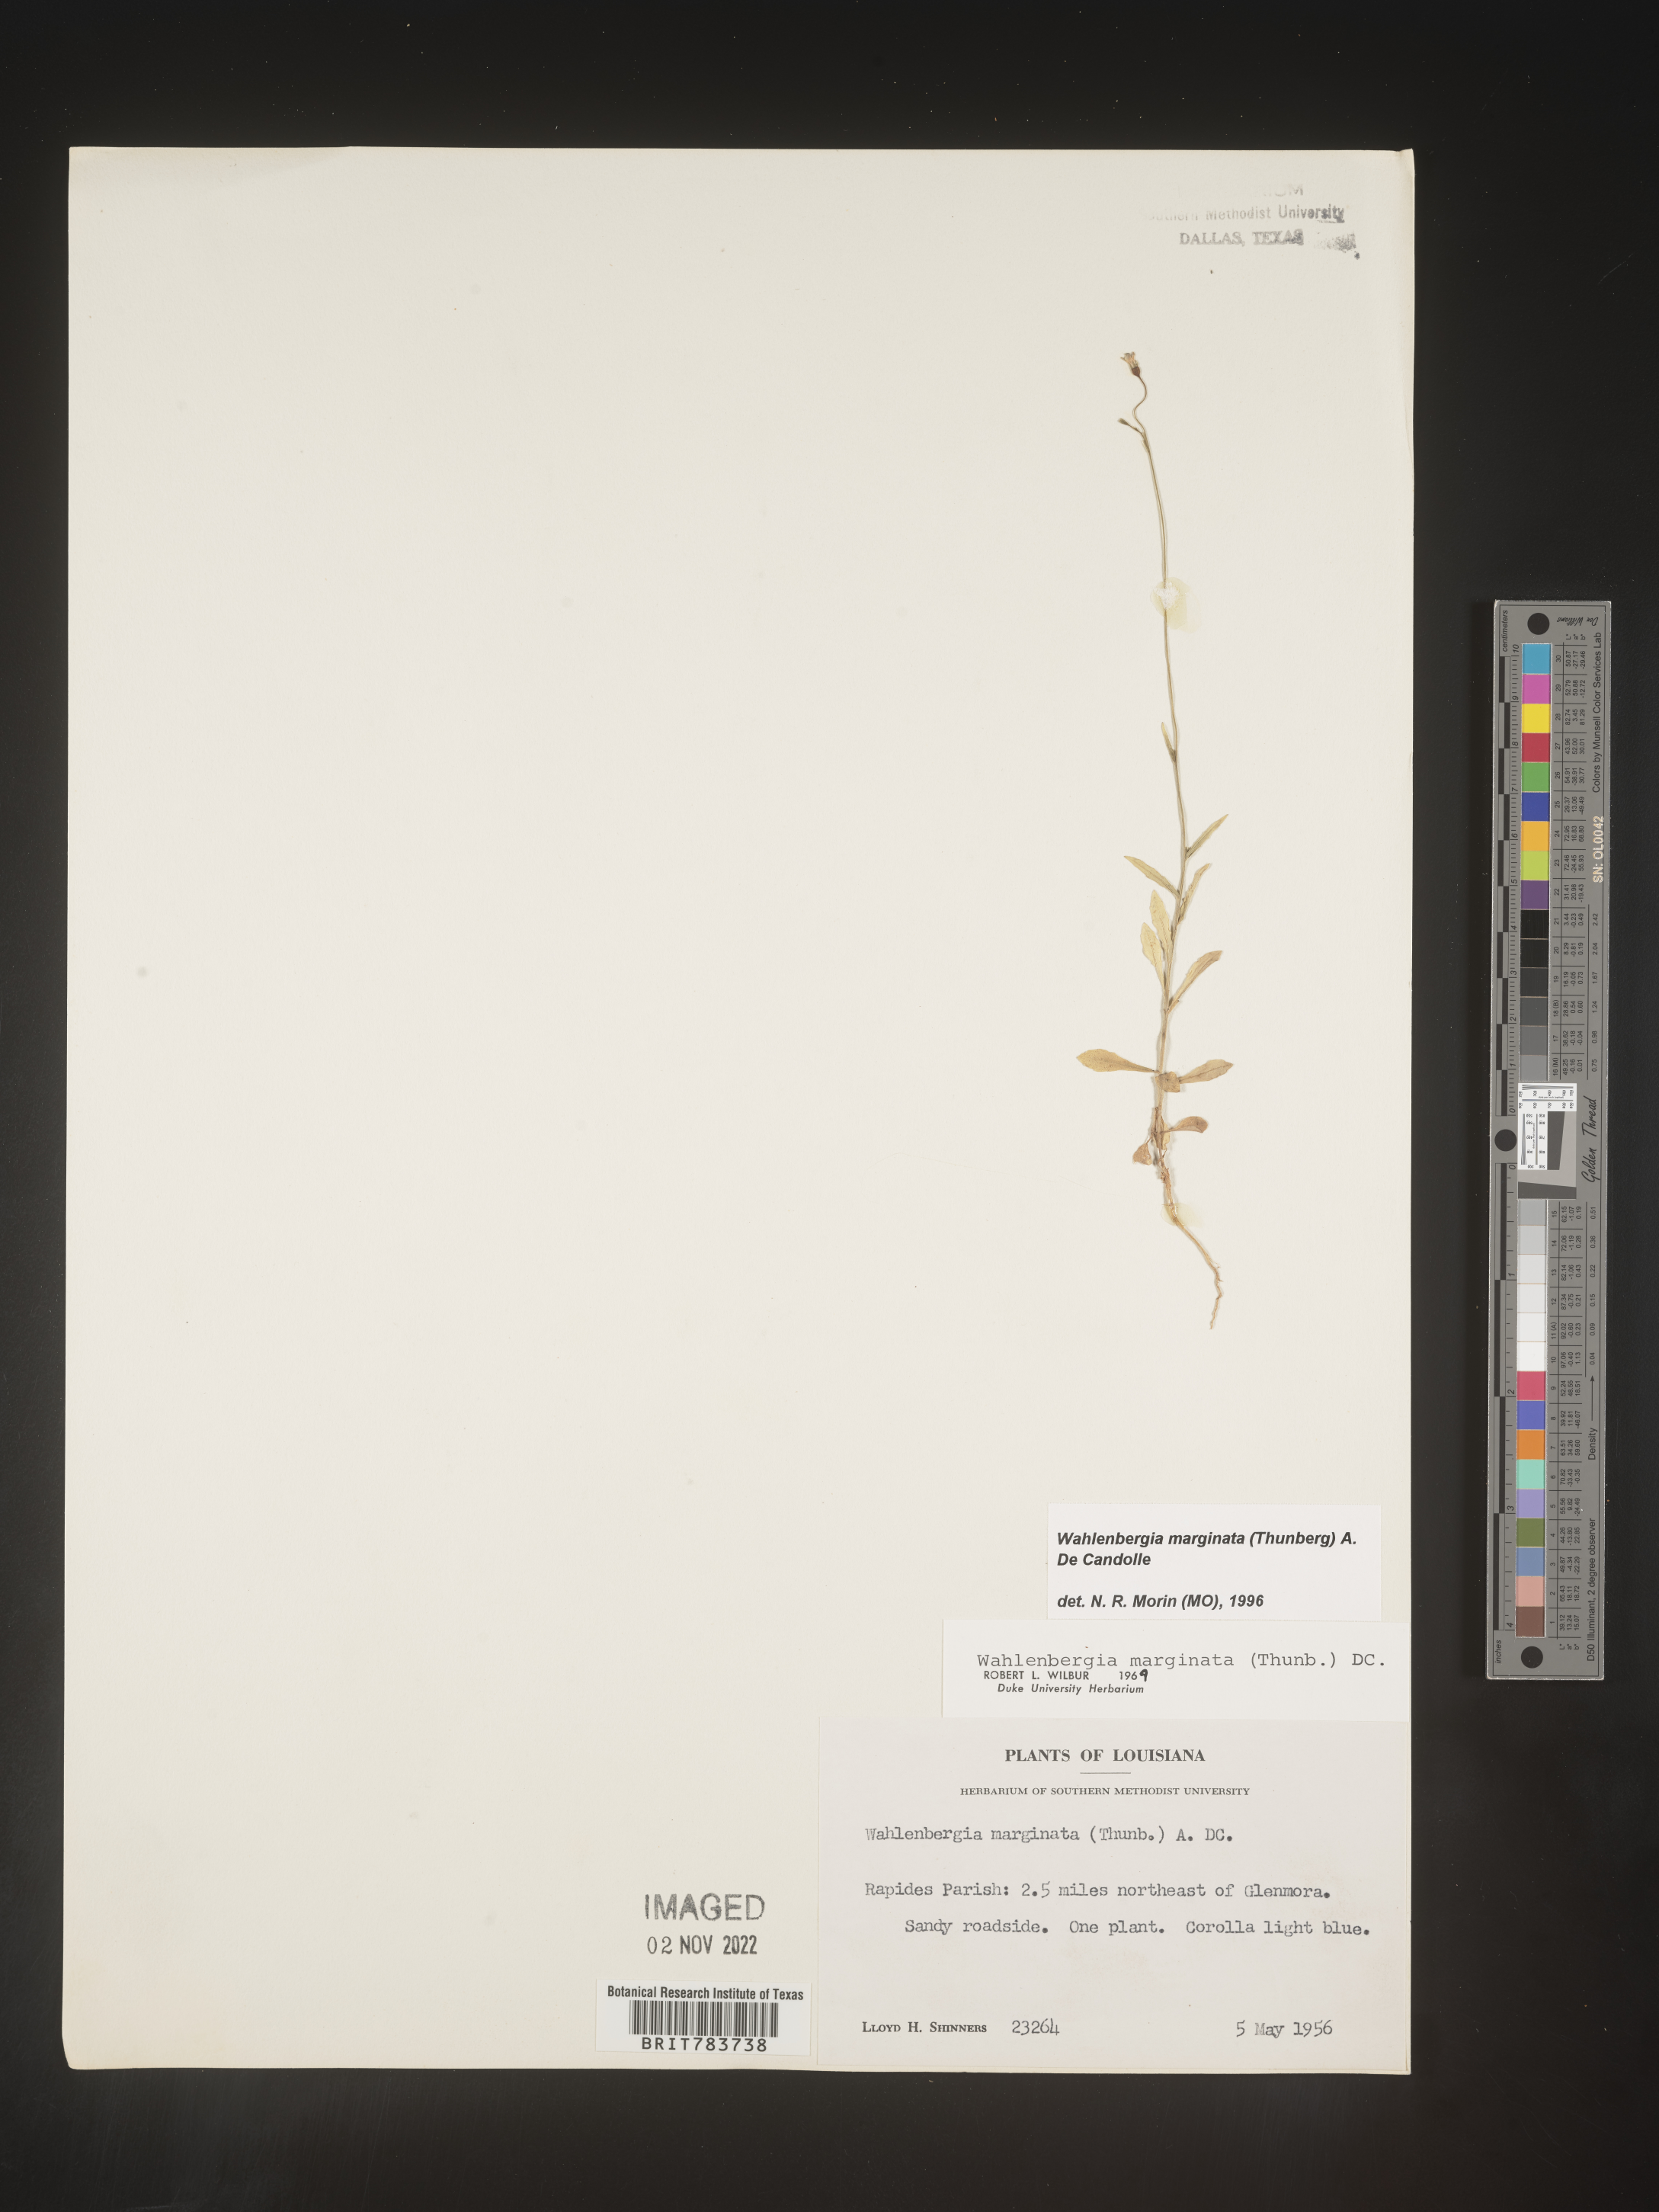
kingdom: Plantae
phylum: Tracheophyta
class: Magnoliopsida
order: Asterales
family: Campanulaceae
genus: Wahlenbergia
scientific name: Wahlenbergia marginata
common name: Southern rockbell
